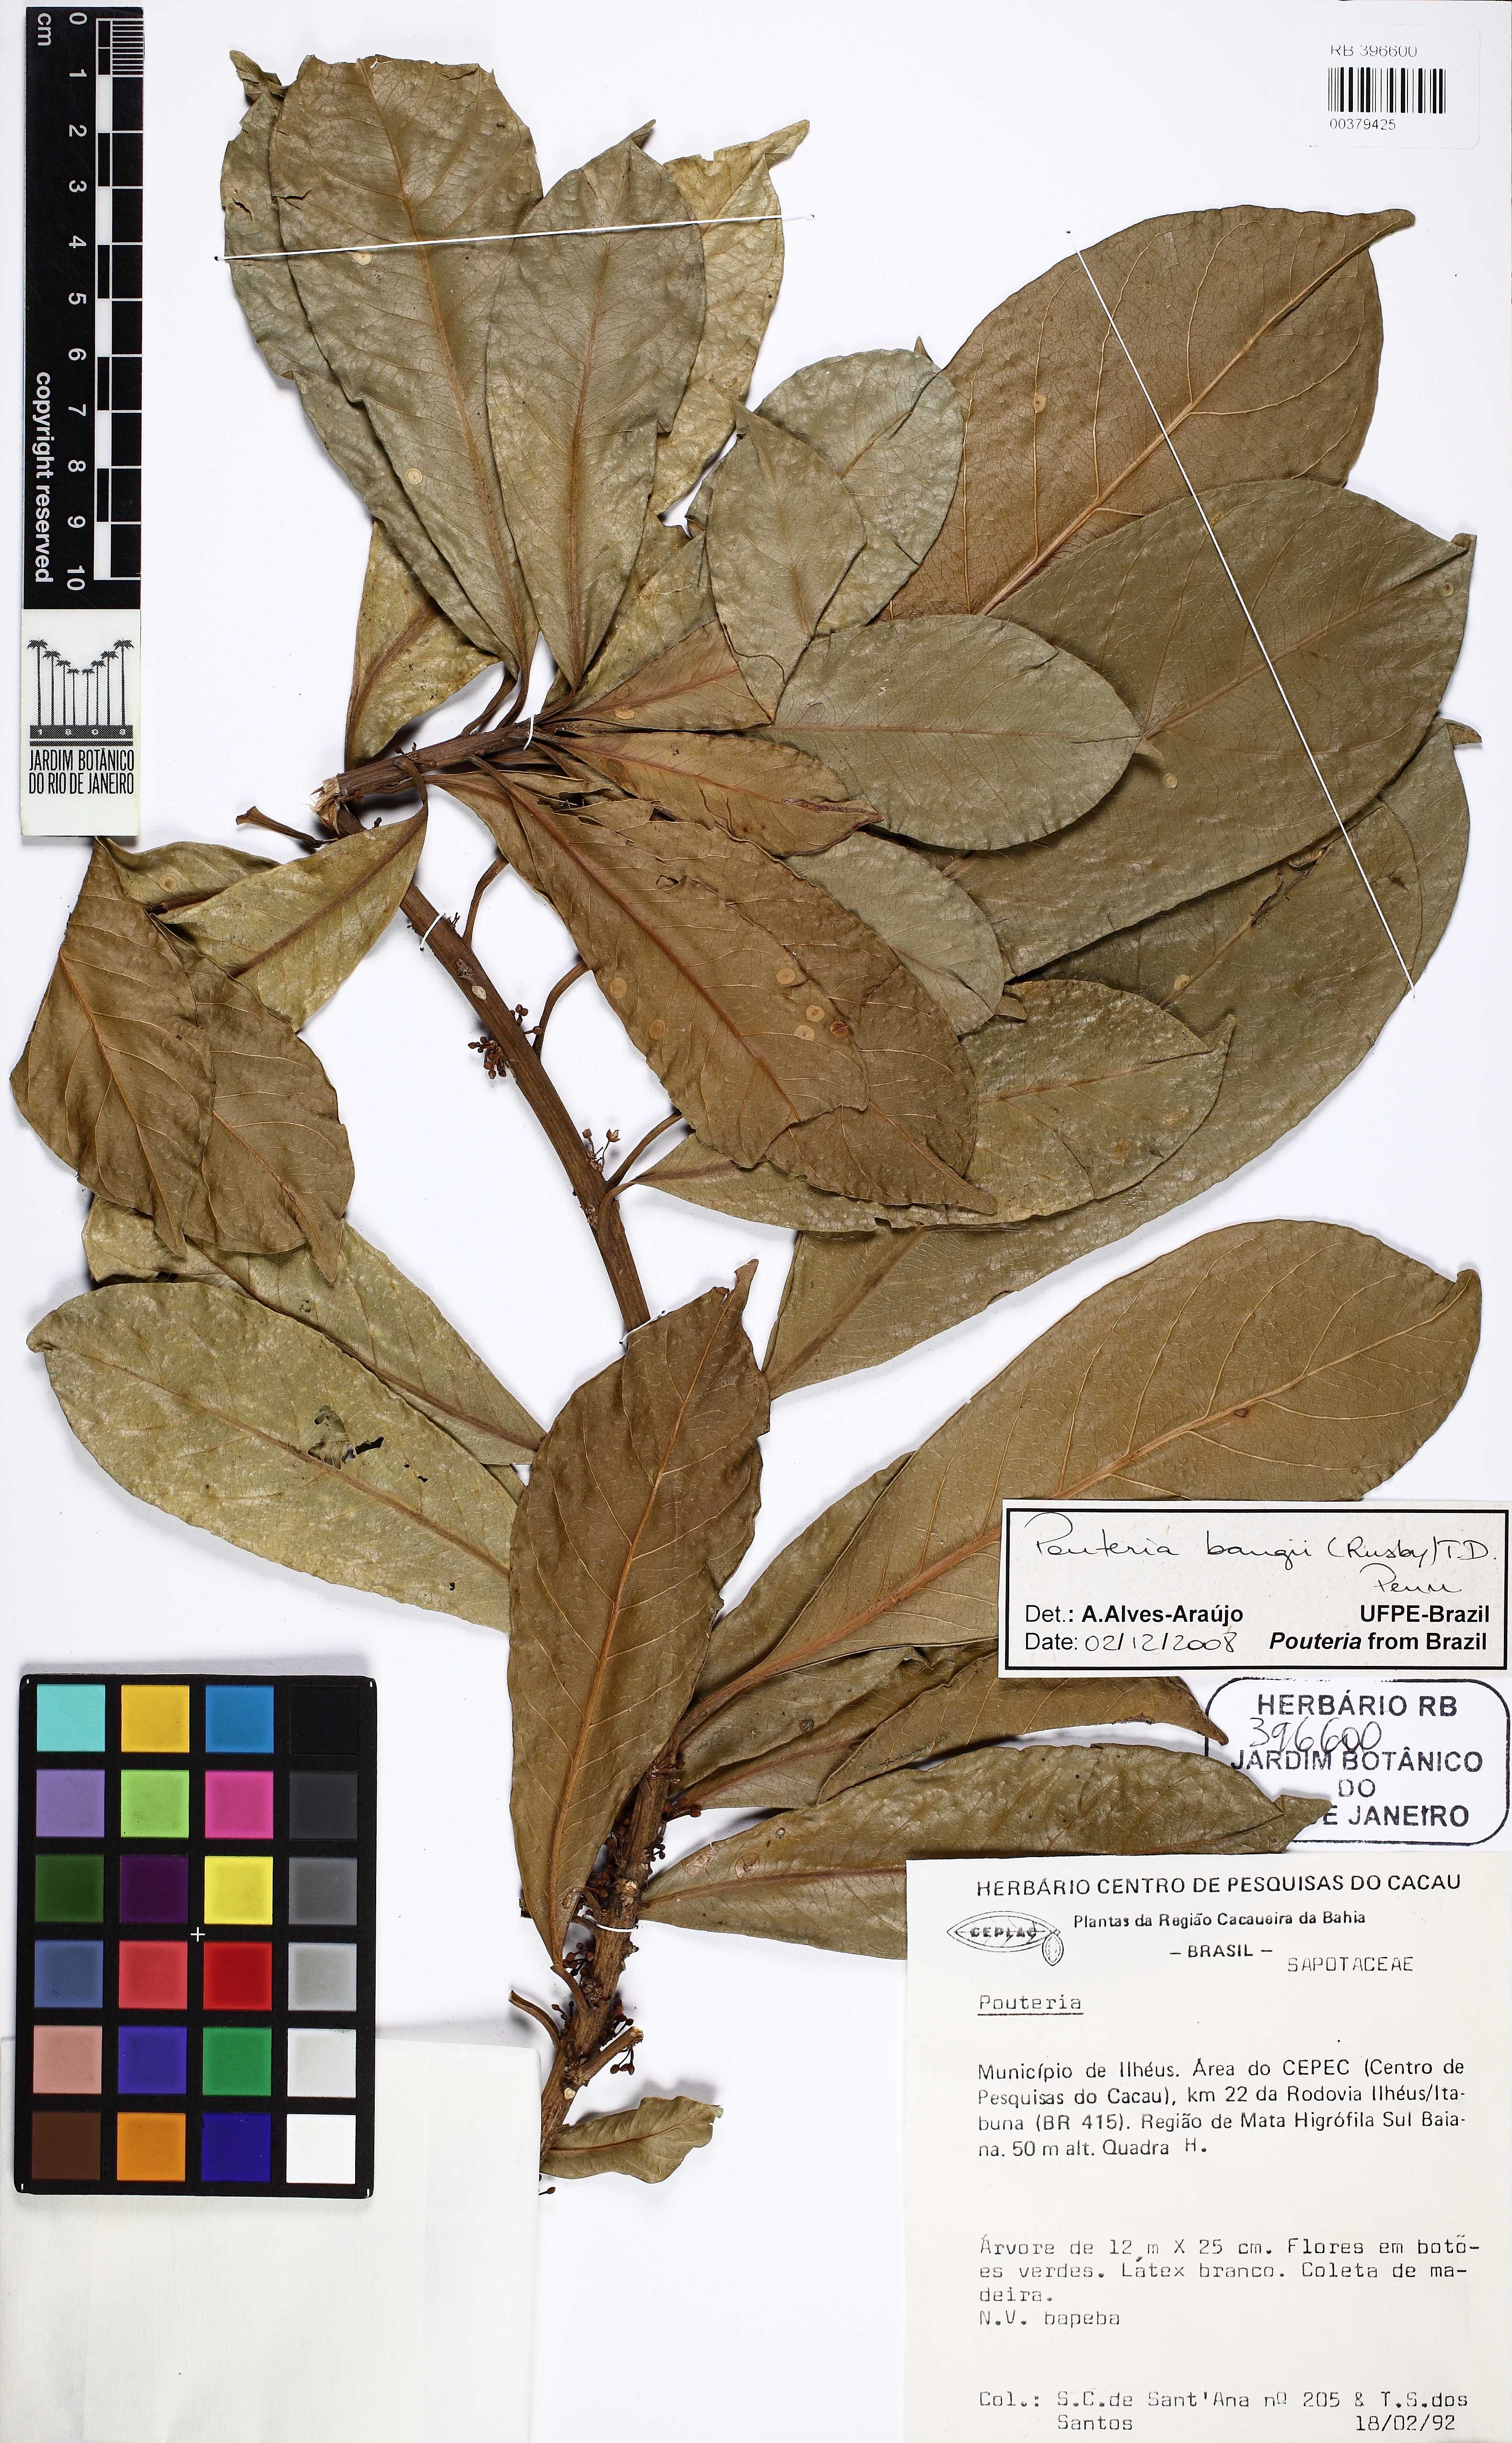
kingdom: Plantae
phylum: Tracheophyta
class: Magnoliopsida
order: Ericales
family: Sapotaceae
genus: Pouteria
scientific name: Pouteria bangii
